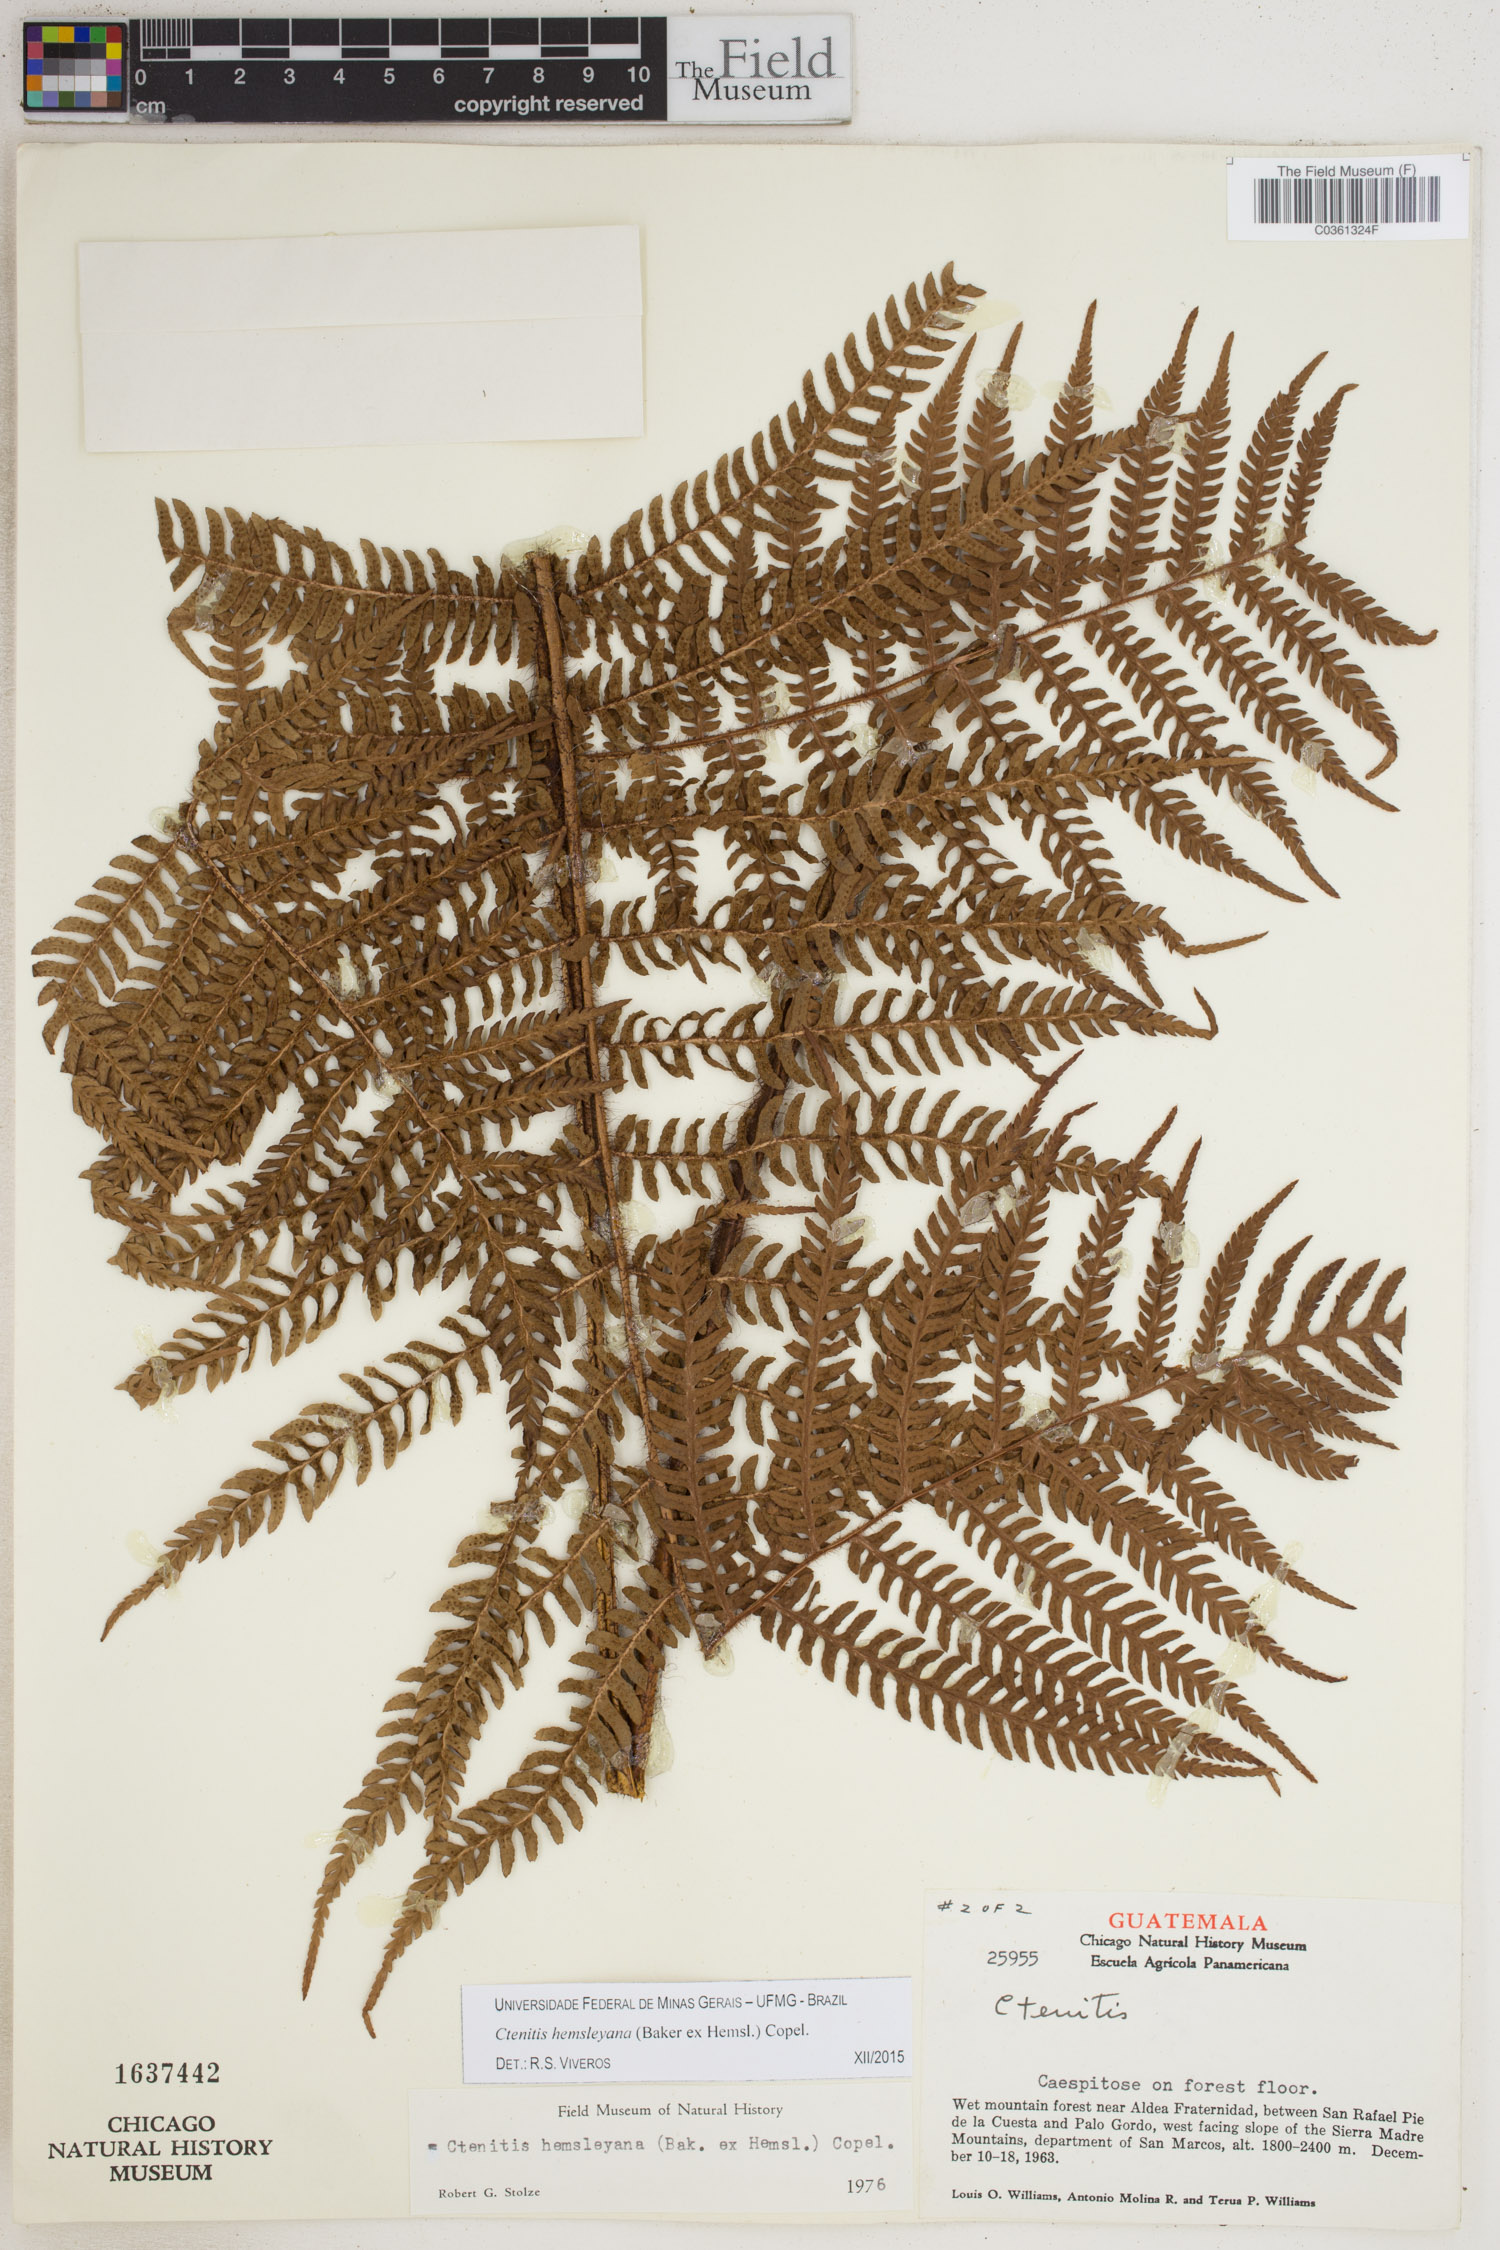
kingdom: Plantae
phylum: Tracheophyta
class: Polypodiopsida
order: Polypodiales
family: Dryopteridaceae
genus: Ctenitis
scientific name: Ctenitis hemsleyana
